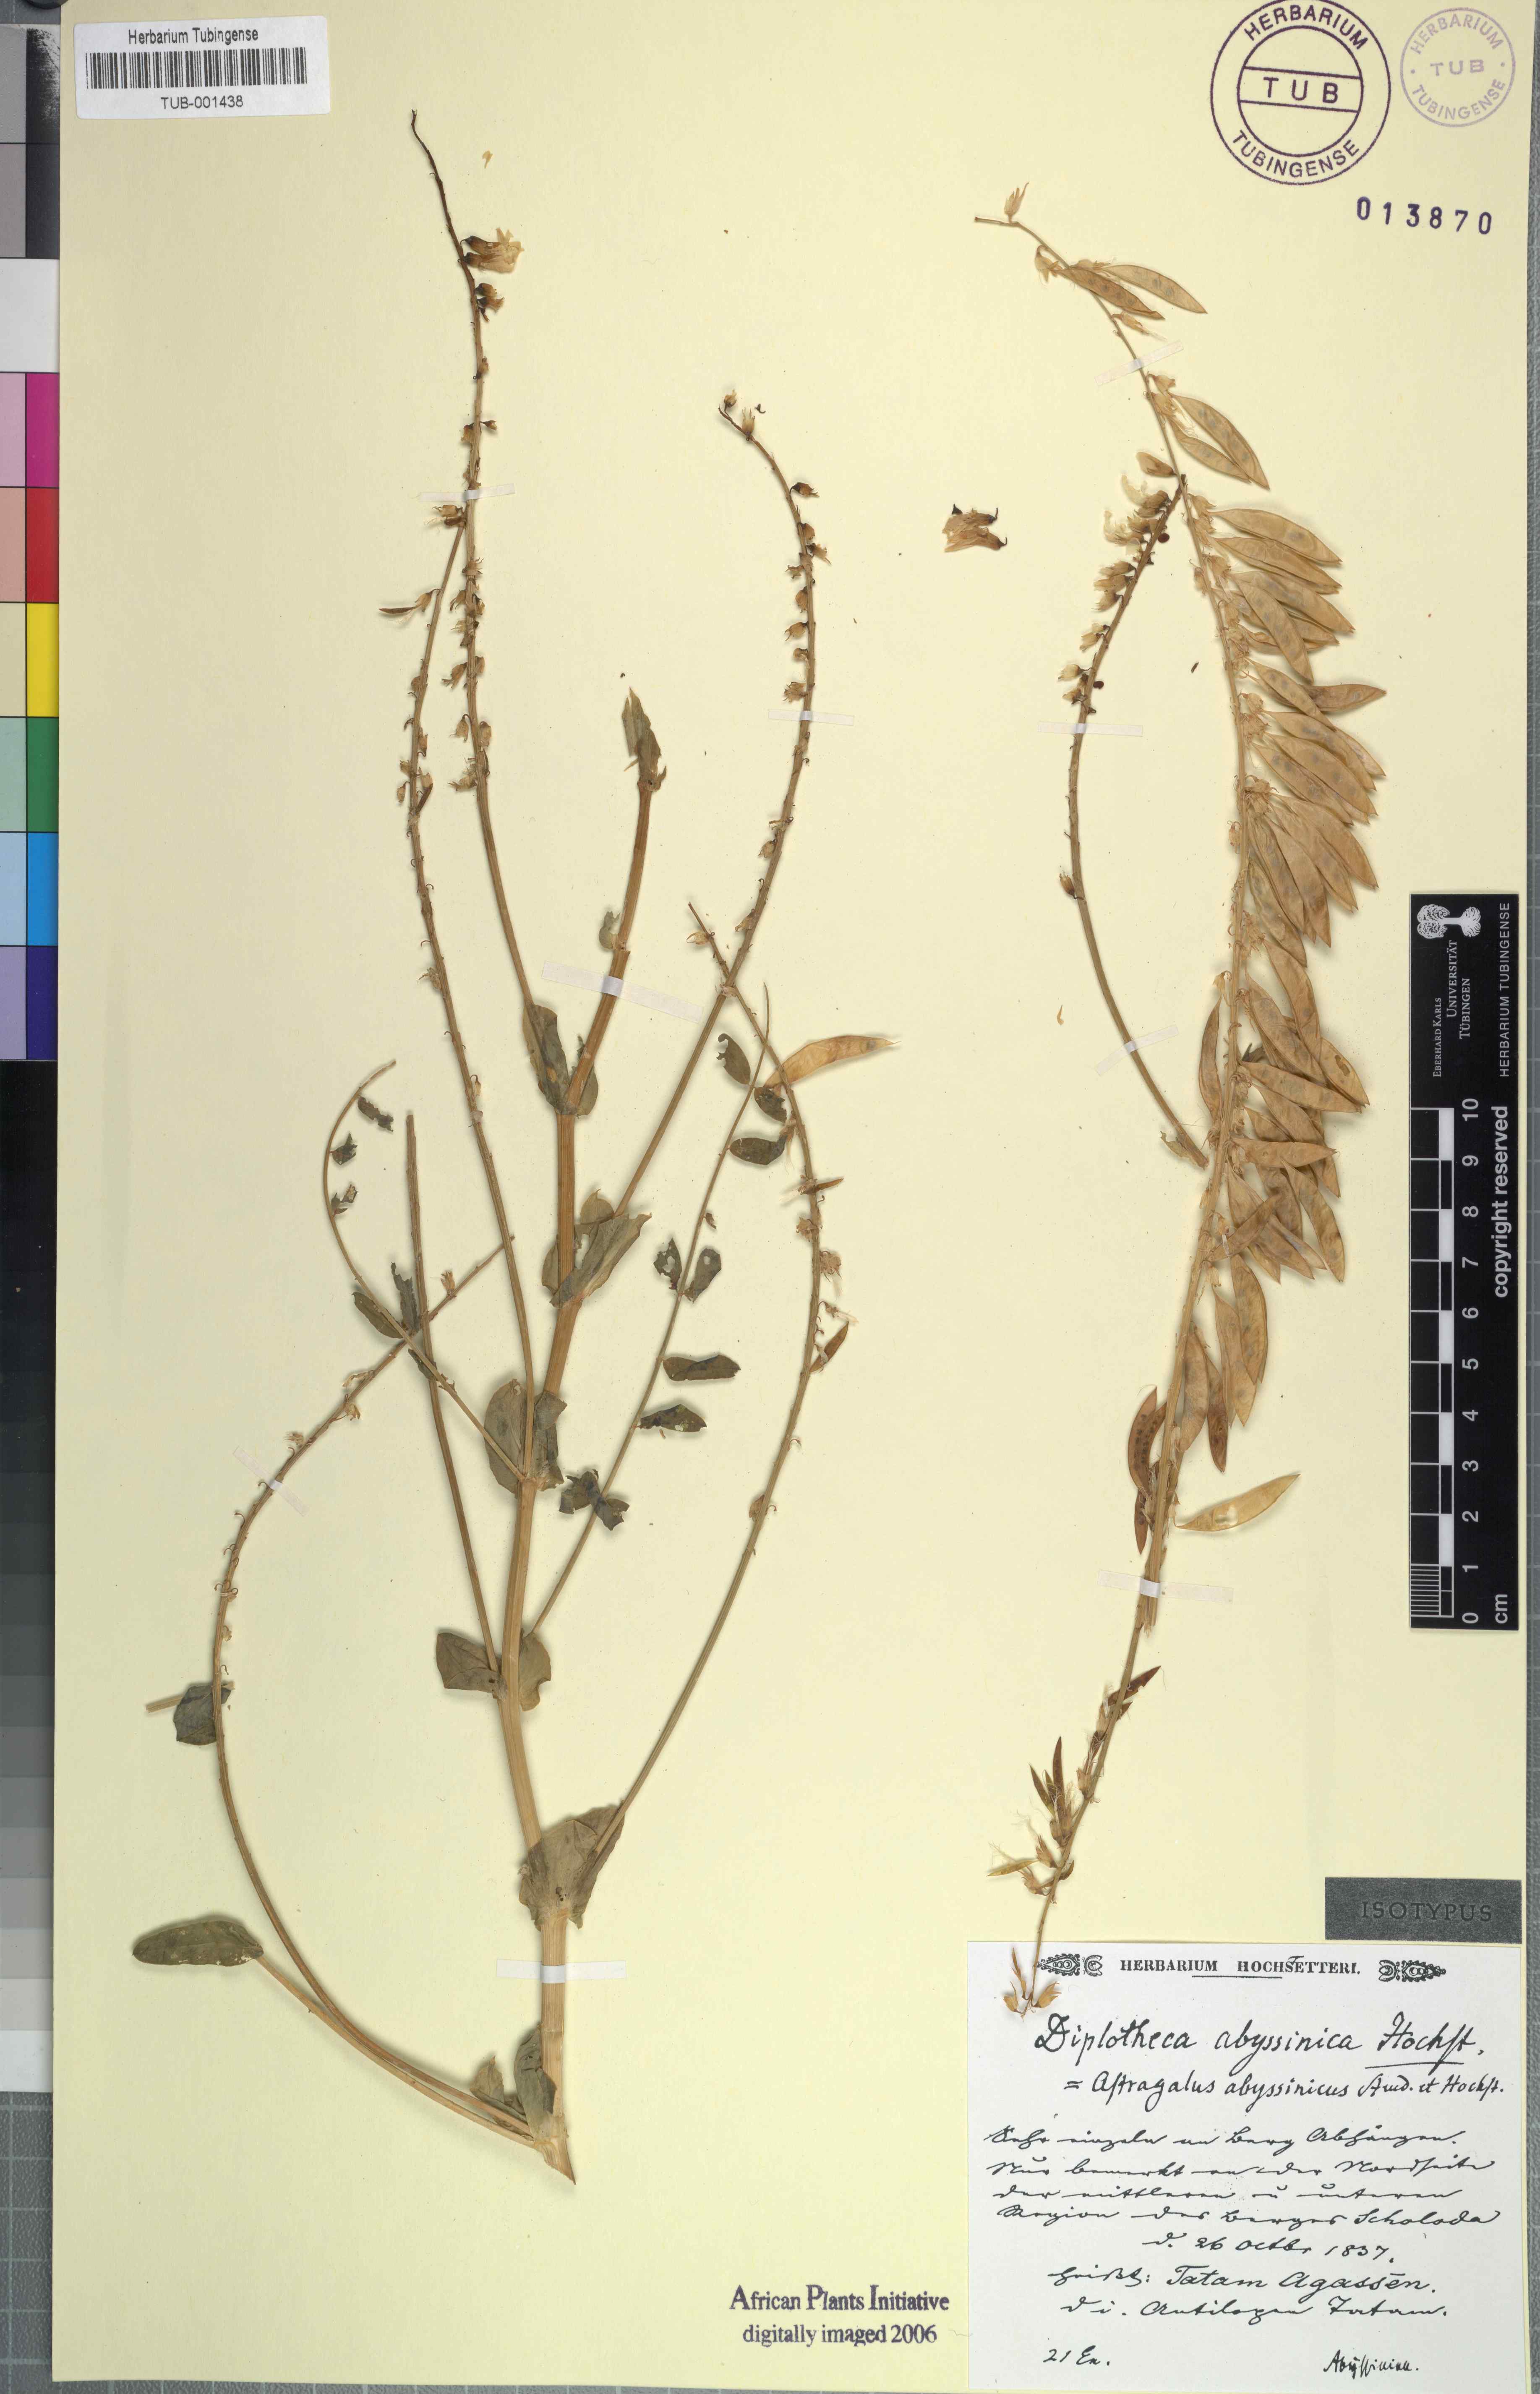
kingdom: Plantae
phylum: Tracheophyta
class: Magnoliopsida
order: Fabales
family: Fabaceae
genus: Astragalus
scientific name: Astragalus atropilosulus
